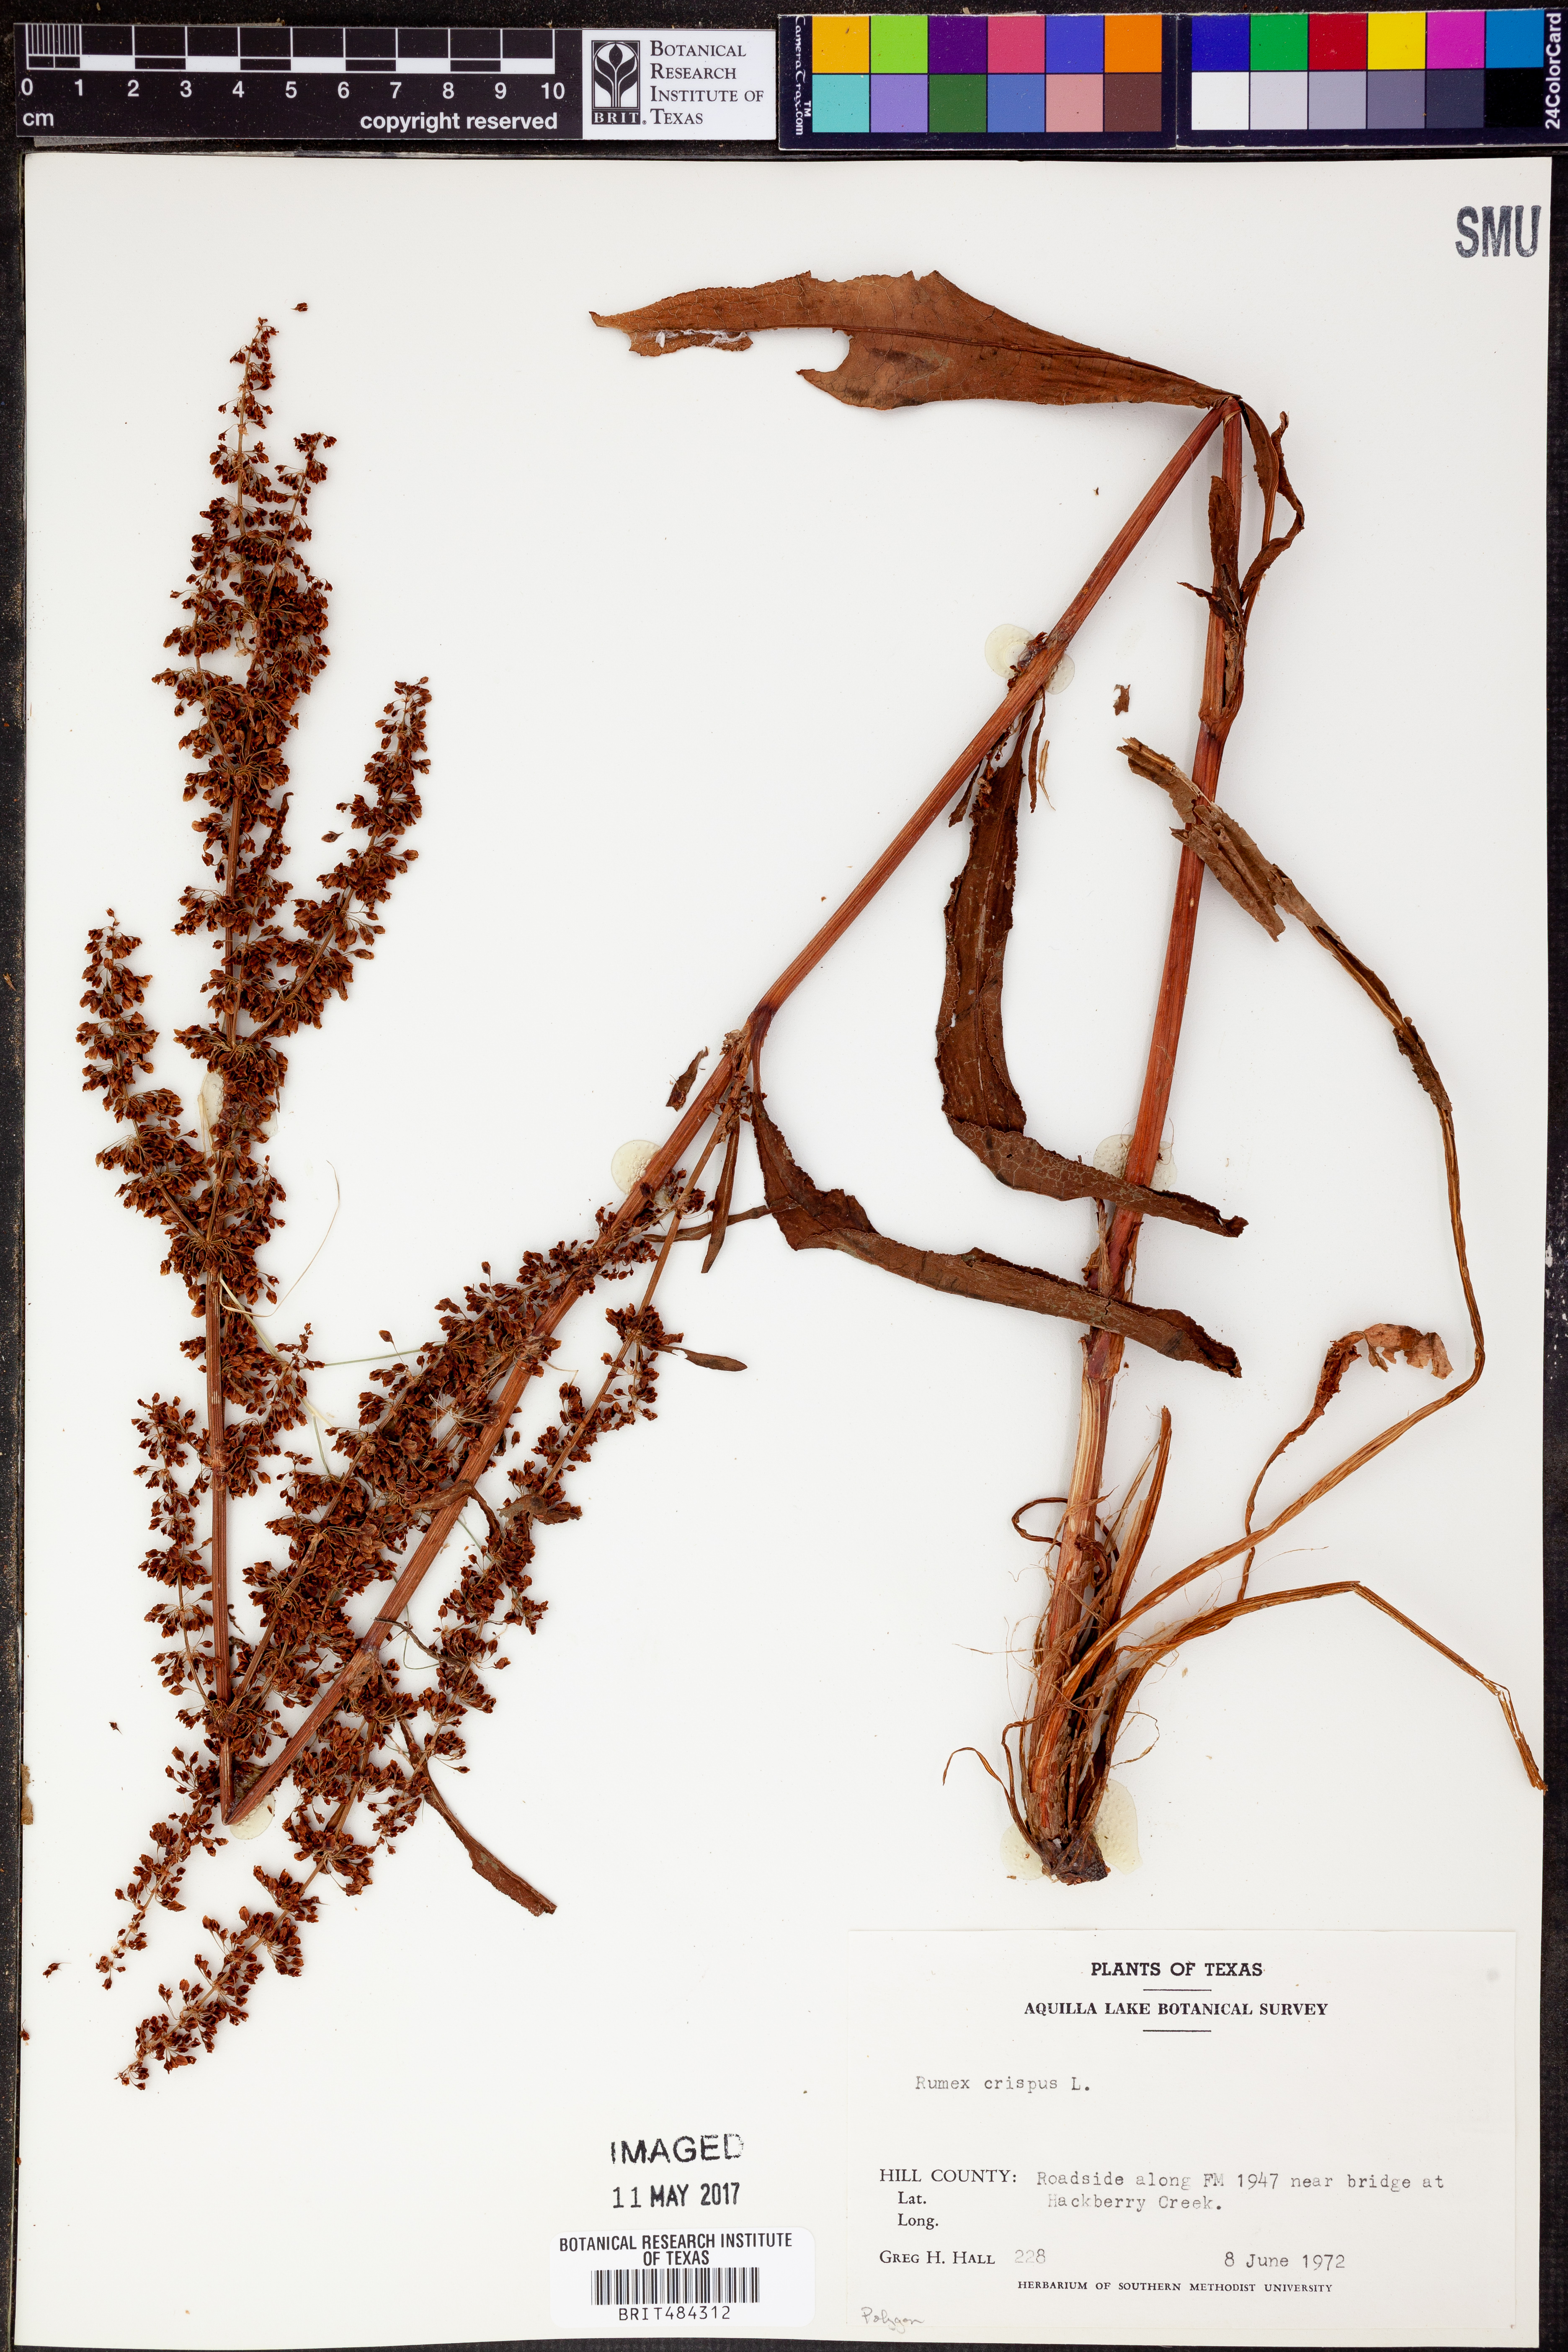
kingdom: Plantae
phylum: Tracheophyta
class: Magnoliopsida
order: Caryophyllales
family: Polygonaceae
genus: Rumex
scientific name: Rumex crispus
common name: Curled dock
